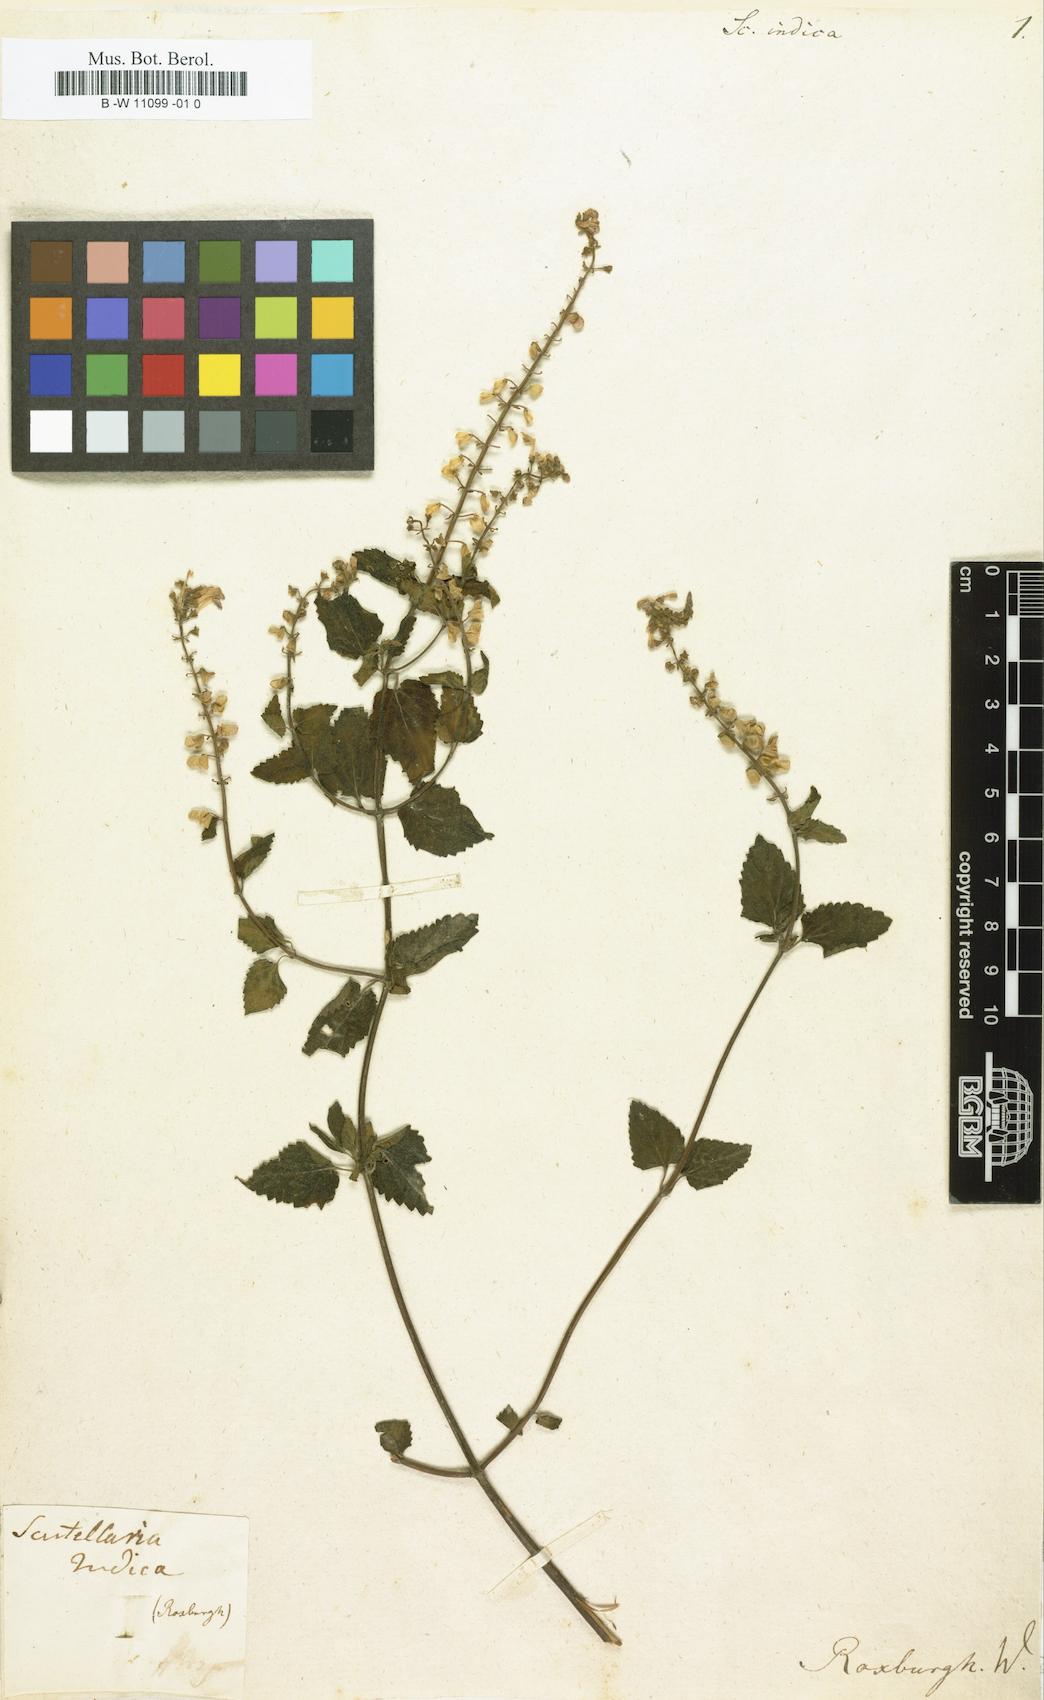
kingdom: Plantae
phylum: Tracheophyta
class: Magnoliopsida
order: Lamiales
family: Lamiaceae
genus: Scutellaria
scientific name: Scutellaria indica
